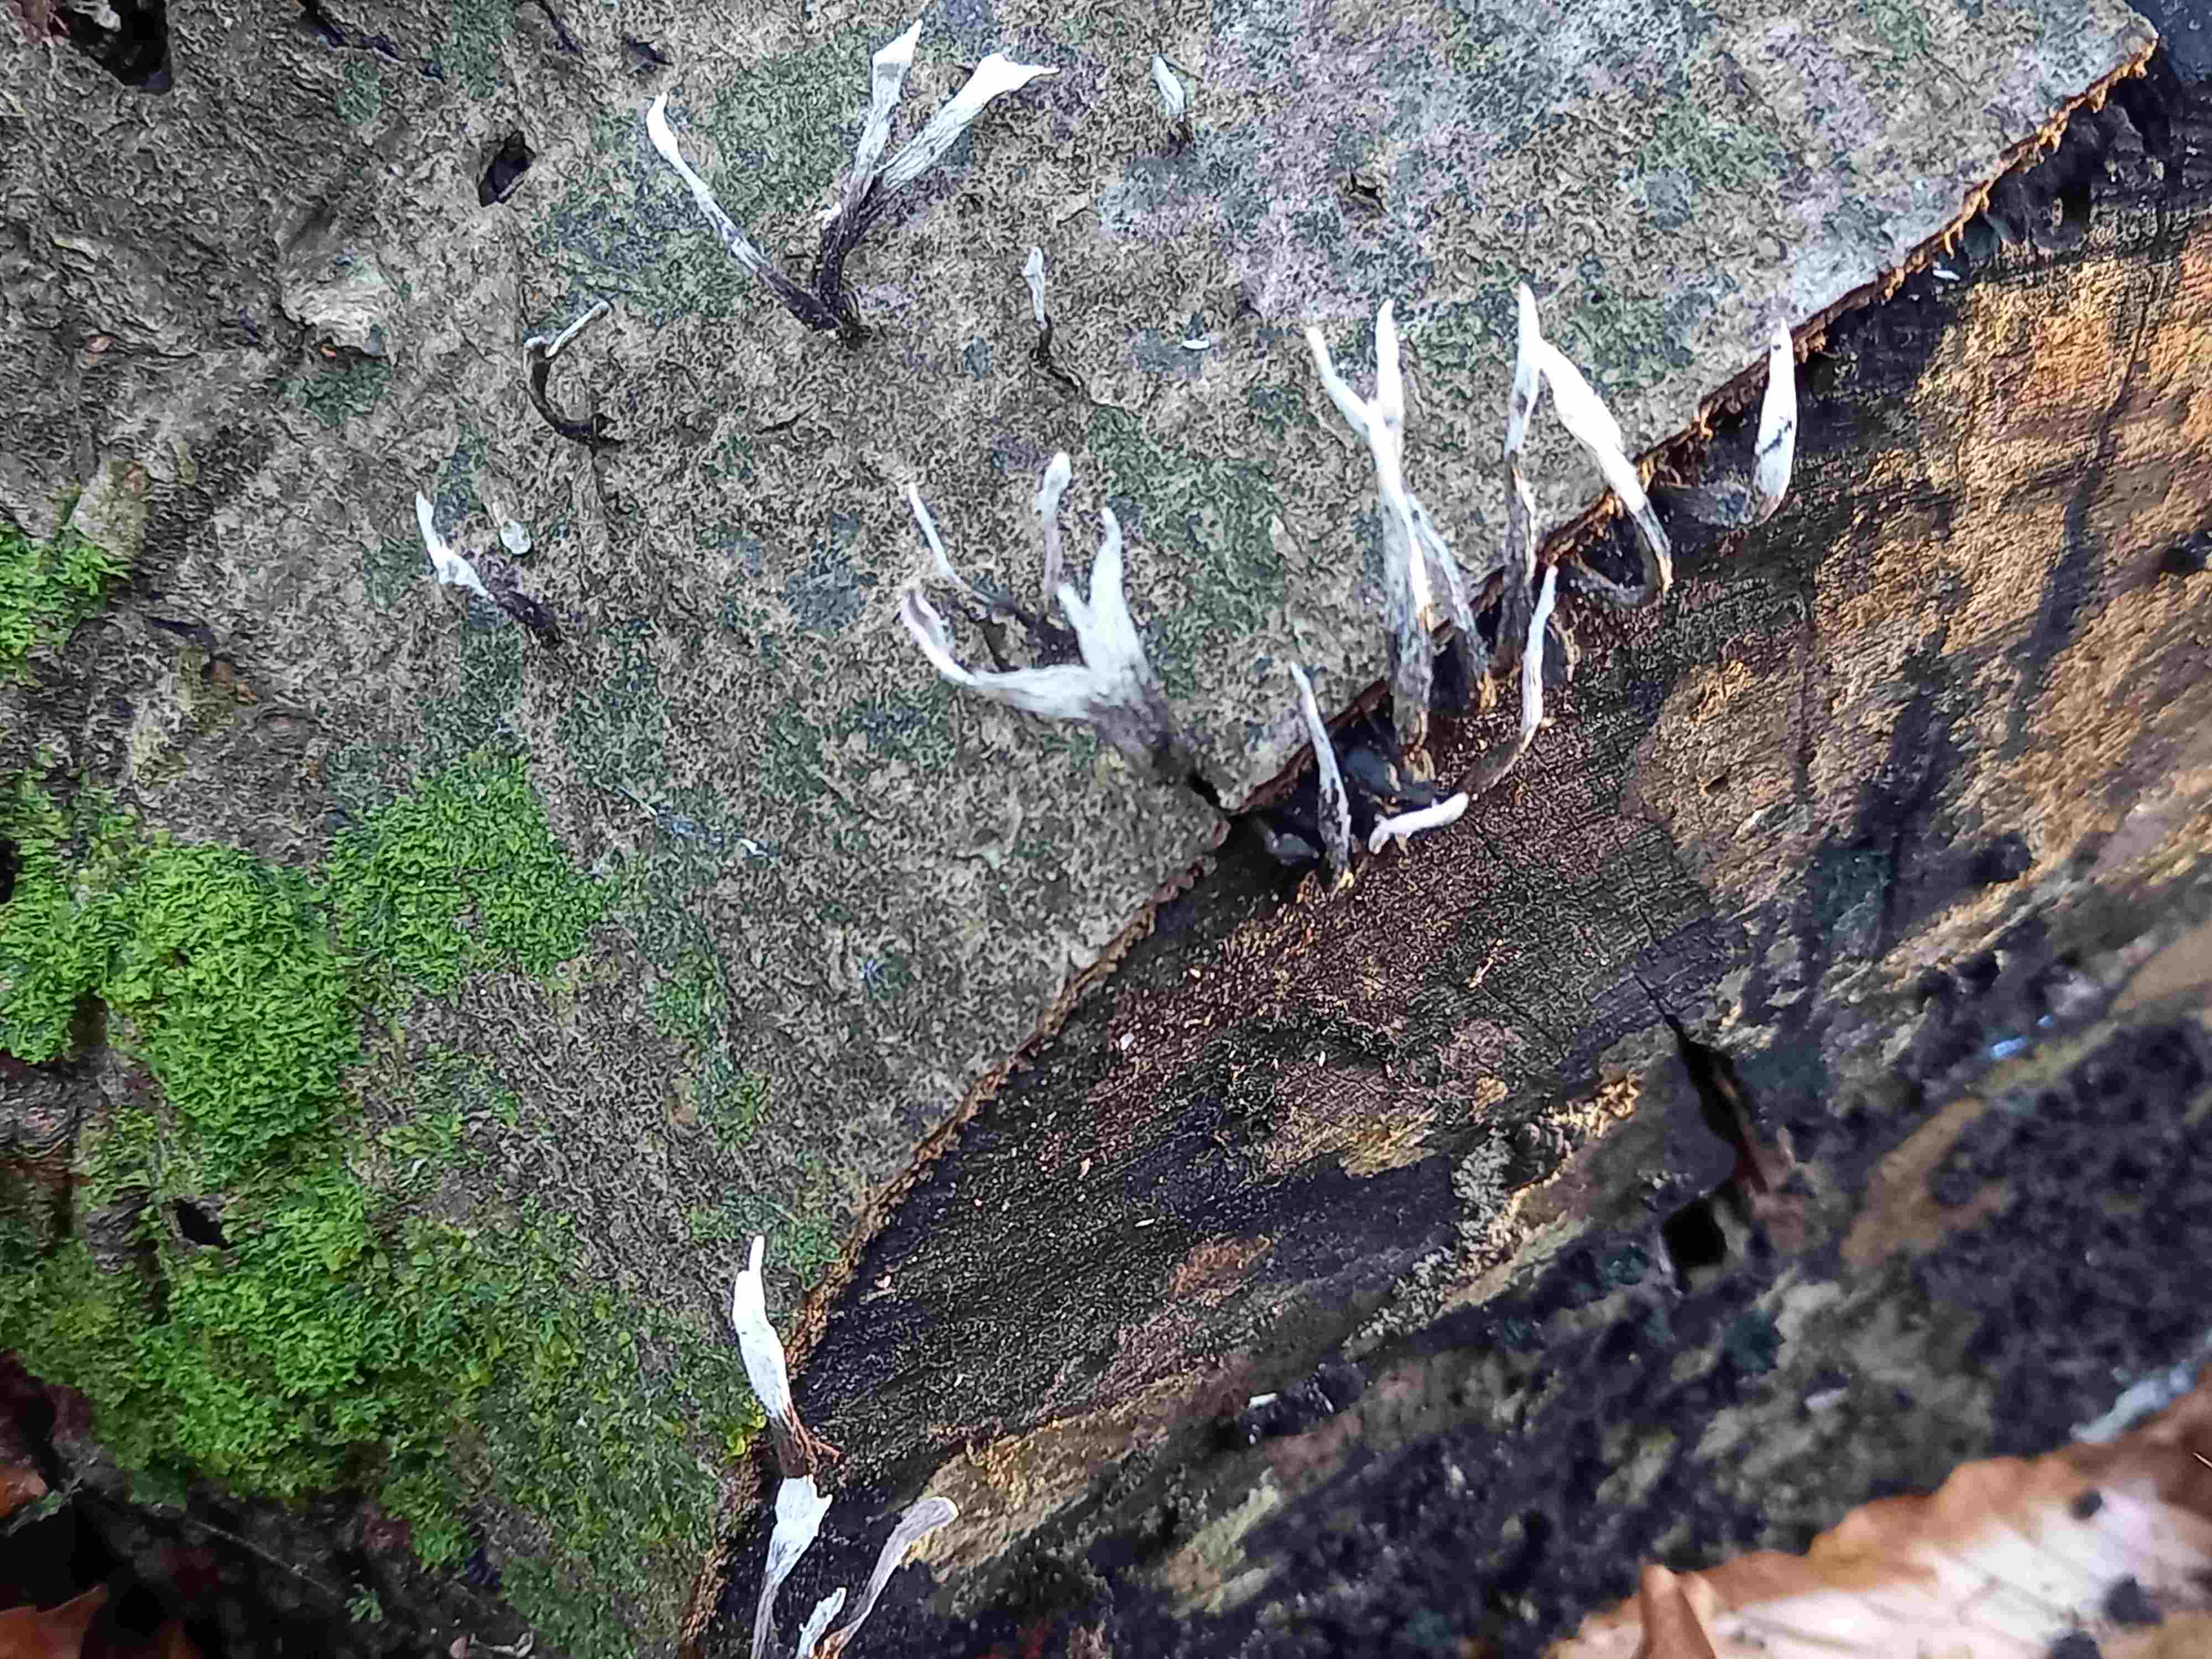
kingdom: Fungi
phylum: Ascomycota
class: Sordariomycetes
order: Xylariales
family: Xylariaceae
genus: Xylaria
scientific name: Xylaria hypoxylon
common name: grenet stødsvamp
